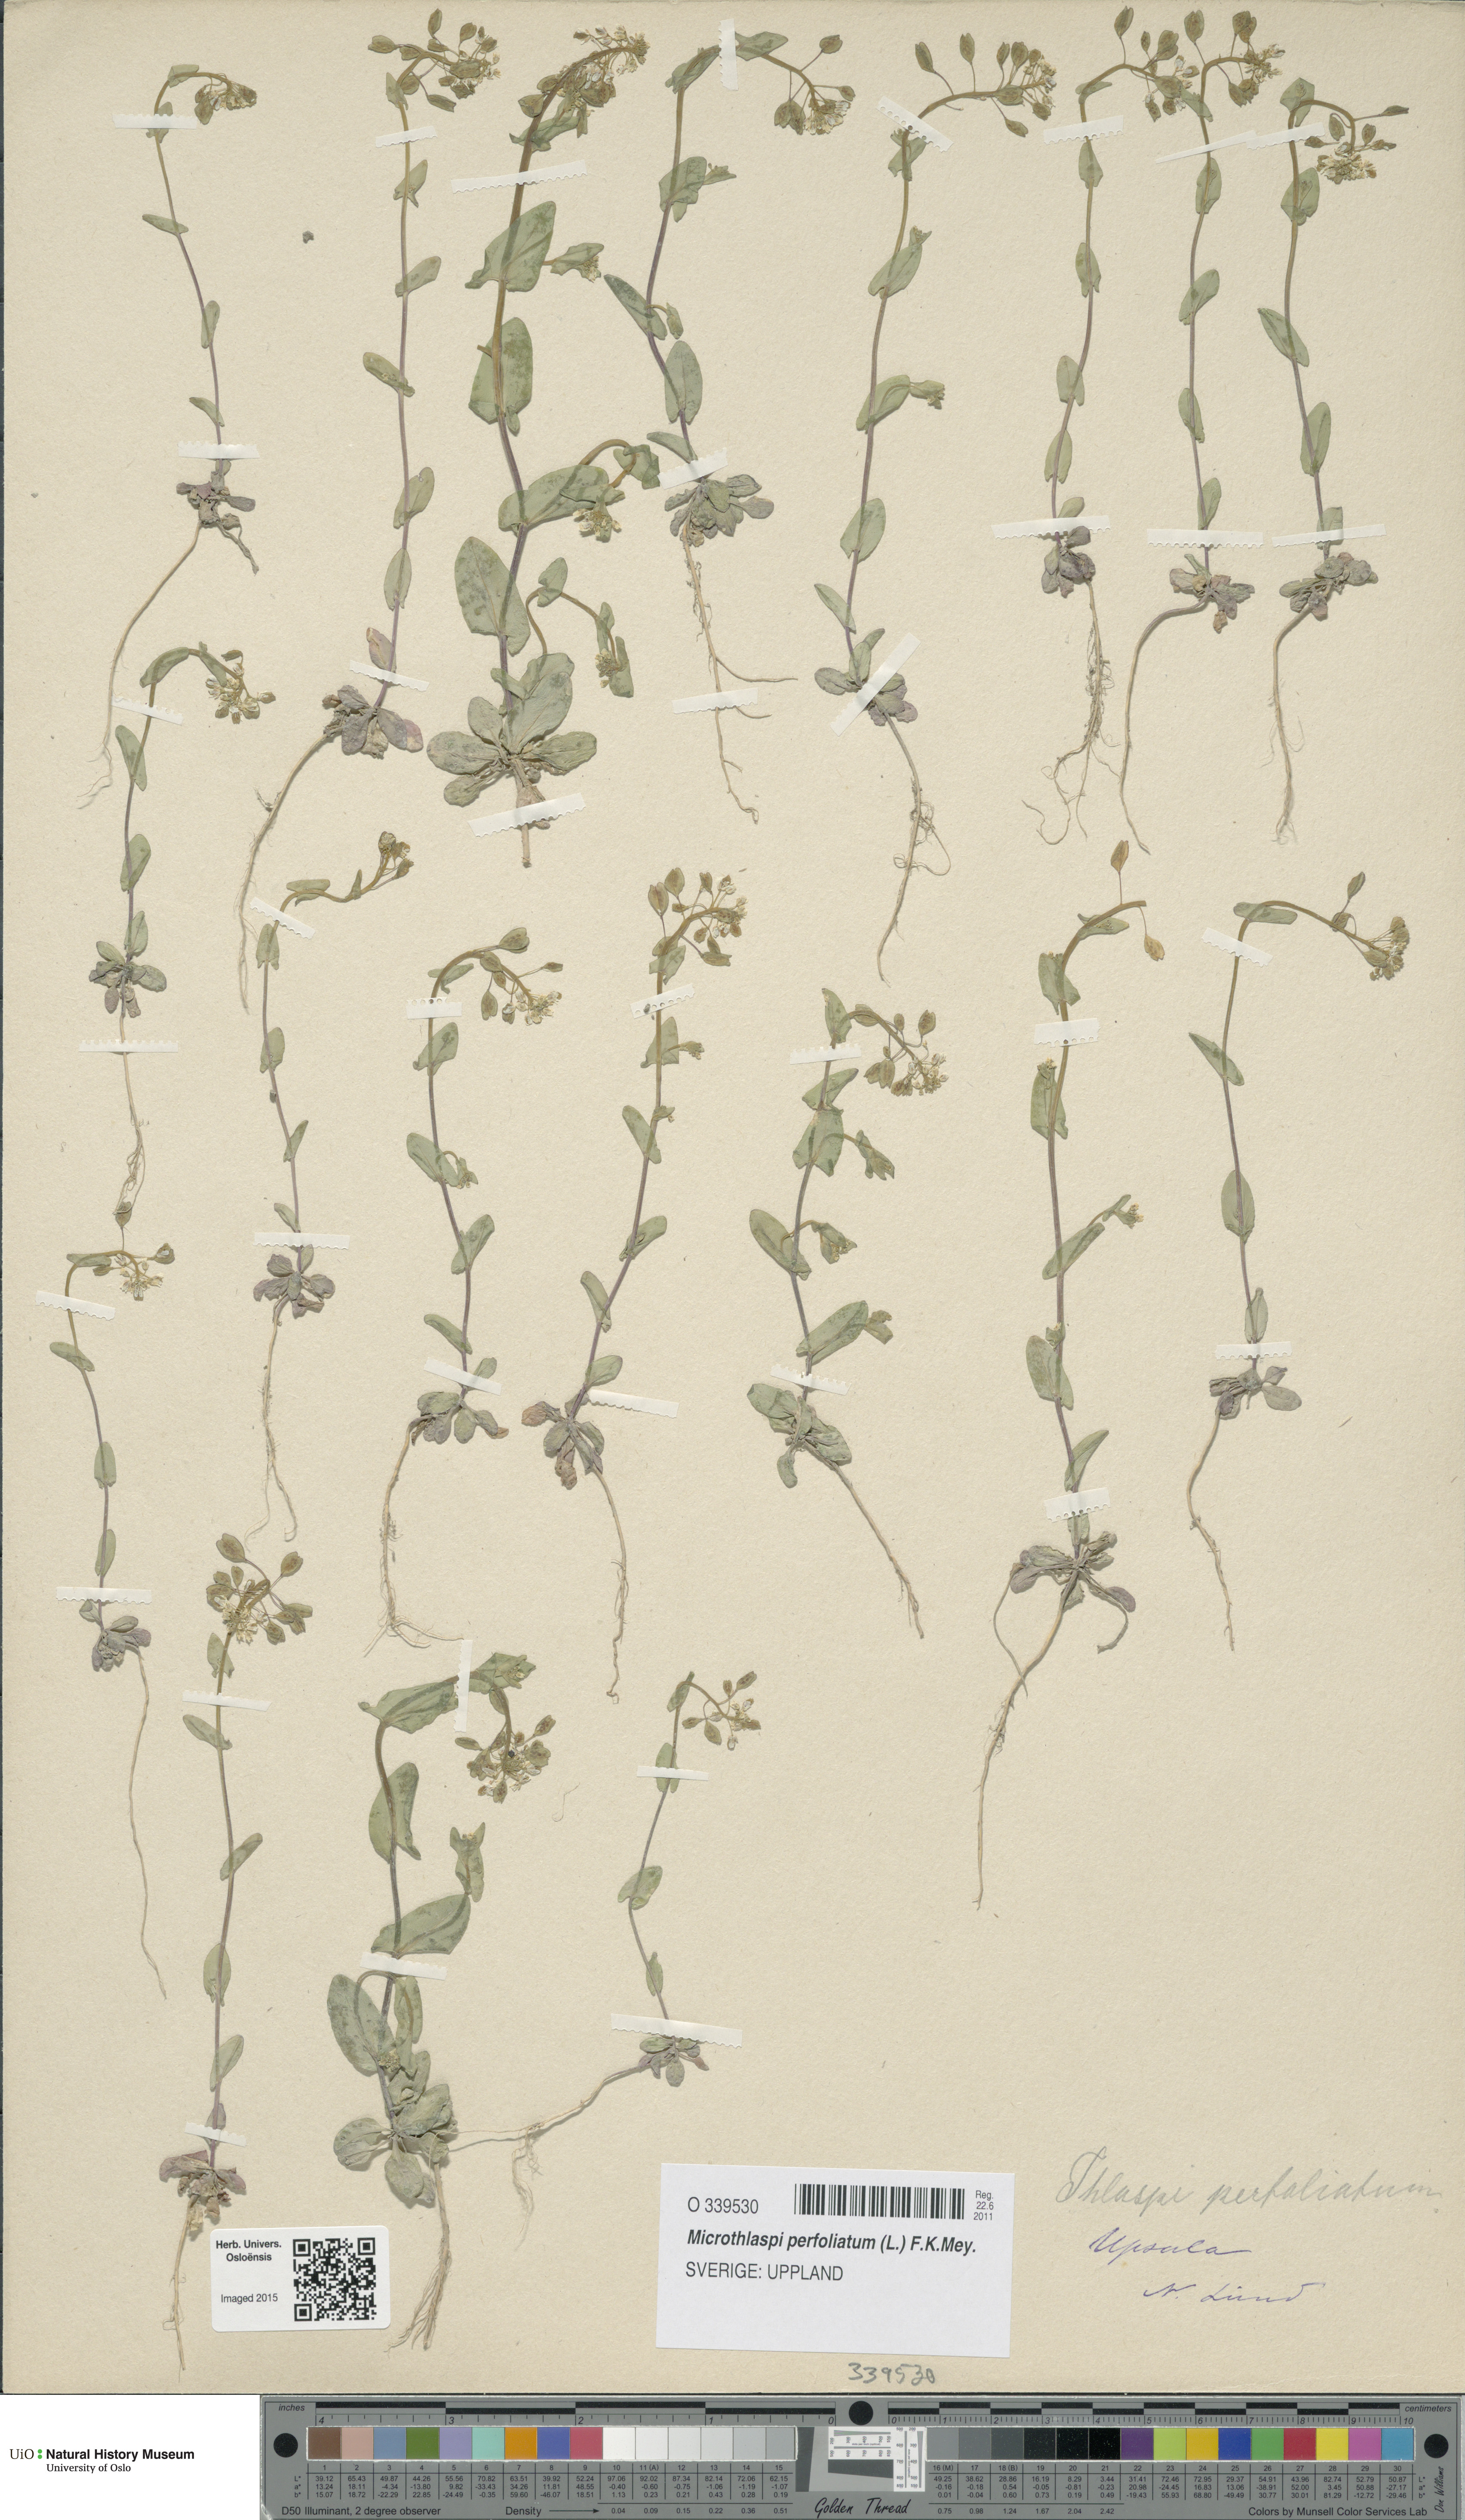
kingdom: Plantae
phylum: Tracheophyta
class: Magnoliopsida
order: Brassicales
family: Brassicaceae
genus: Noccaea
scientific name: Noccaea perfoliata
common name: Perfoliate pennycress
